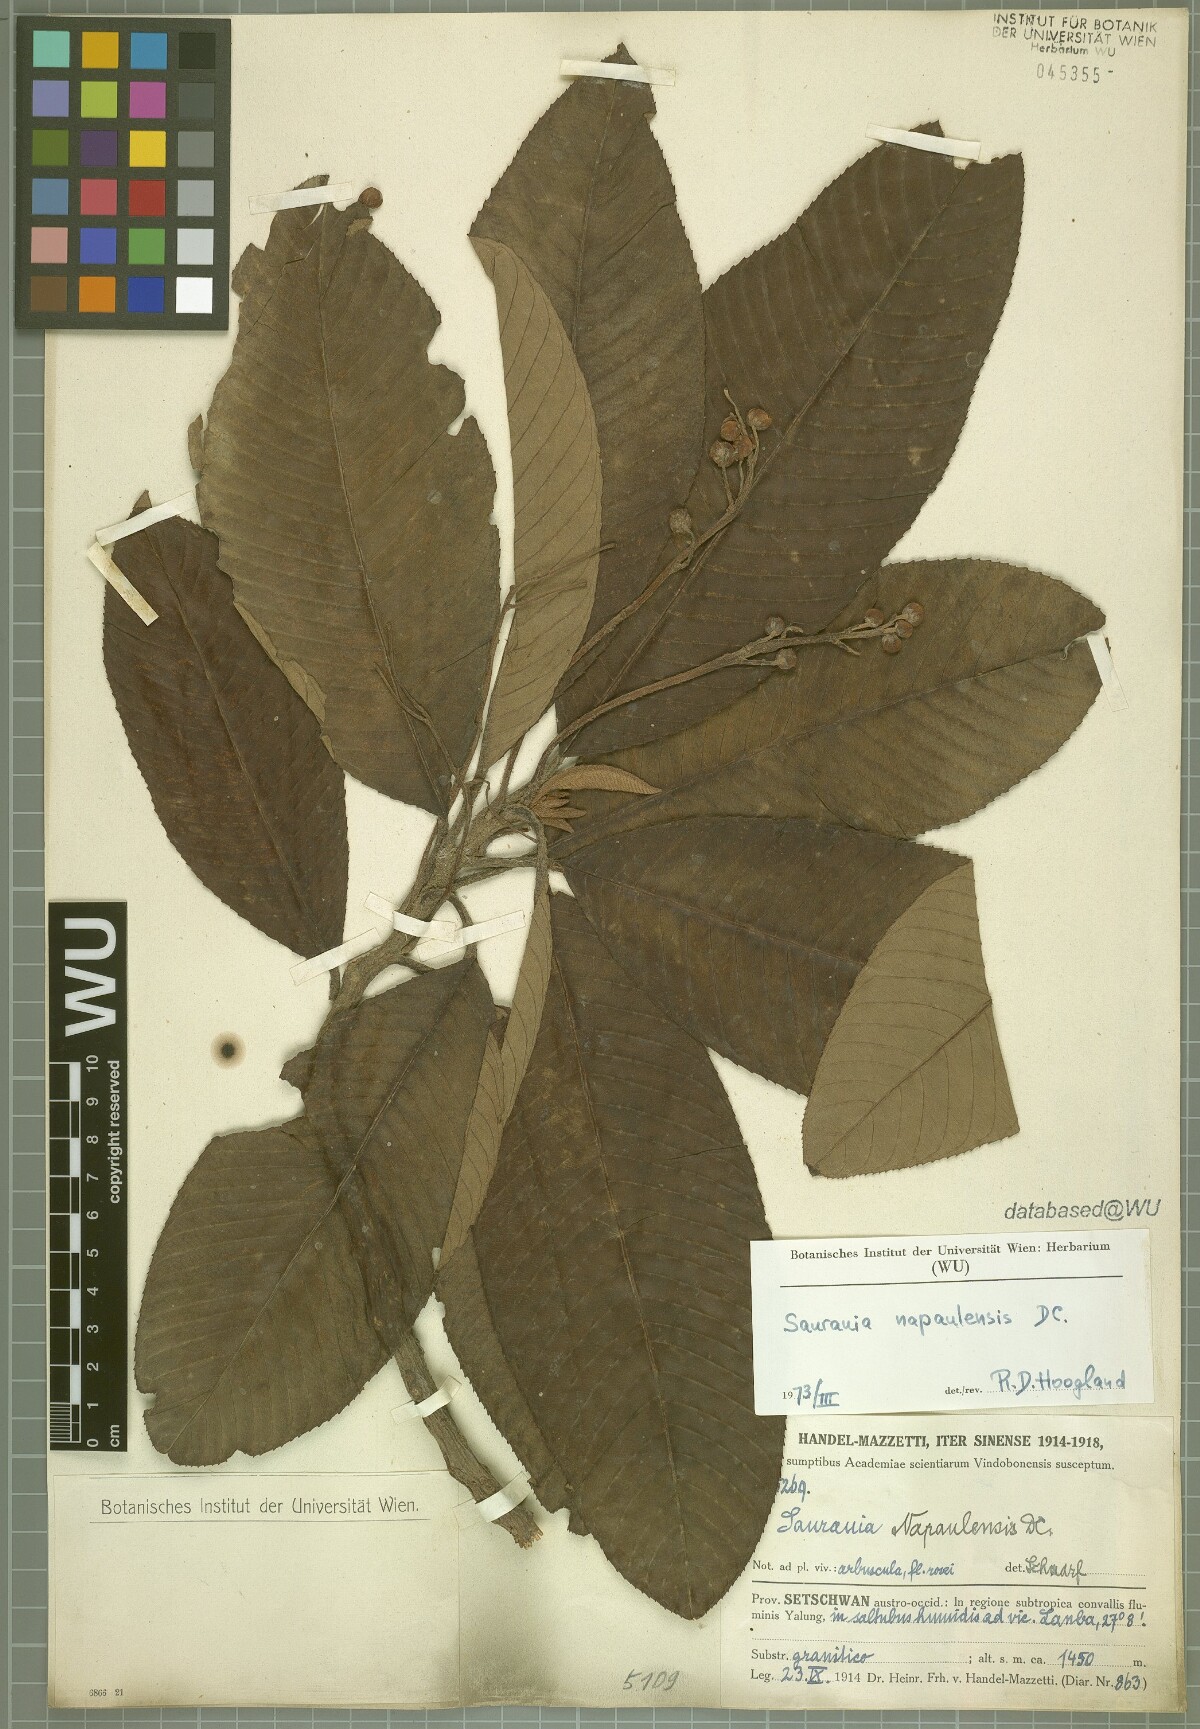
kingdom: Plantae
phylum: Tracheophyta
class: Magnoliopsida
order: Ericales
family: Actinidiaceae
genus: Saurauia
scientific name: Saurauia napaulensis
